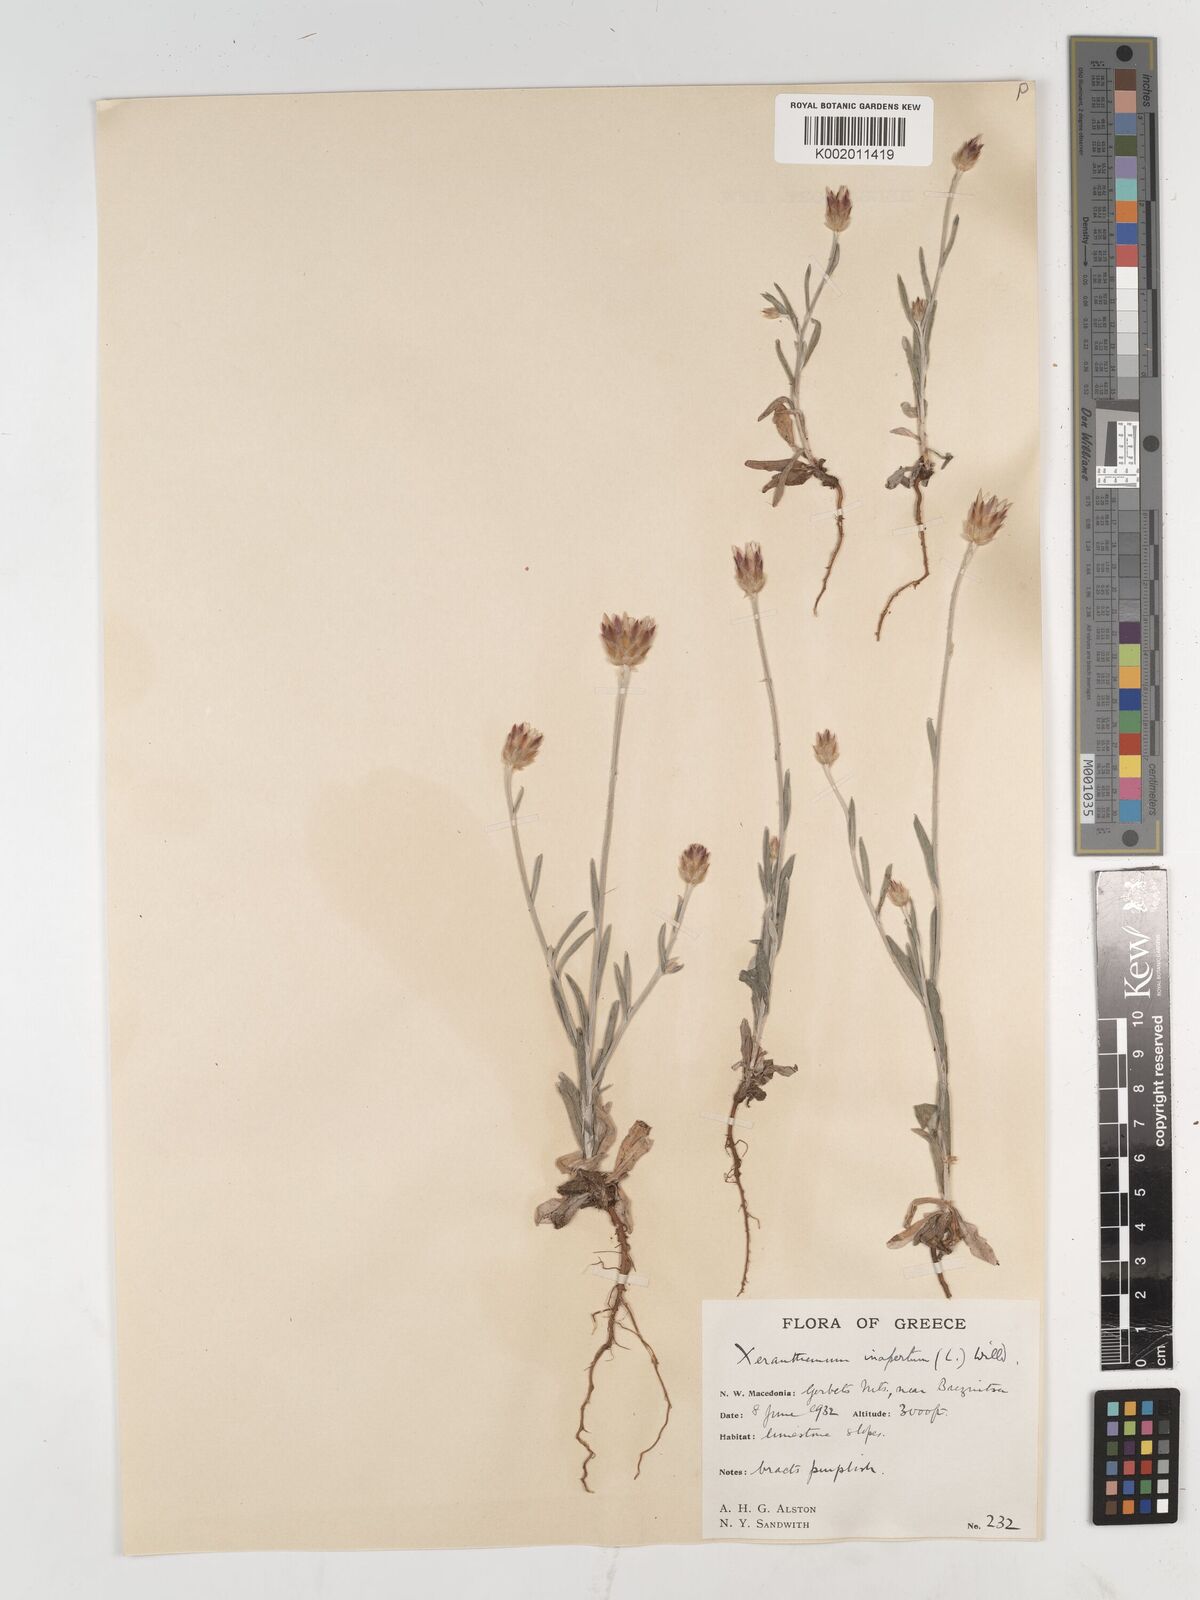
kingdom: Plantae
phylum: Tracheophyta
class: Magnoliopsida
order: Asterales
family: Asteraceae
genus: Xeranthemum
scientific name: Xeranthemum inapertum
